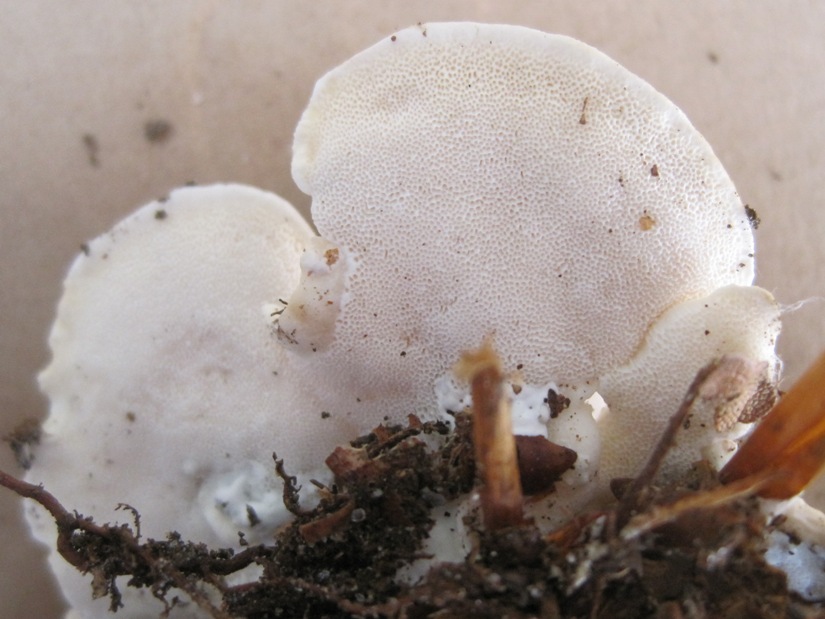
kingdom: Fungi
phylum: Basidiomycota
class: Agaricomycetes
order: Polyporales
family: Dacryobolaceae
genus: Spongiporus
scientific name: Spongiporus floriformis
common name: oprejst kødporesvamp
